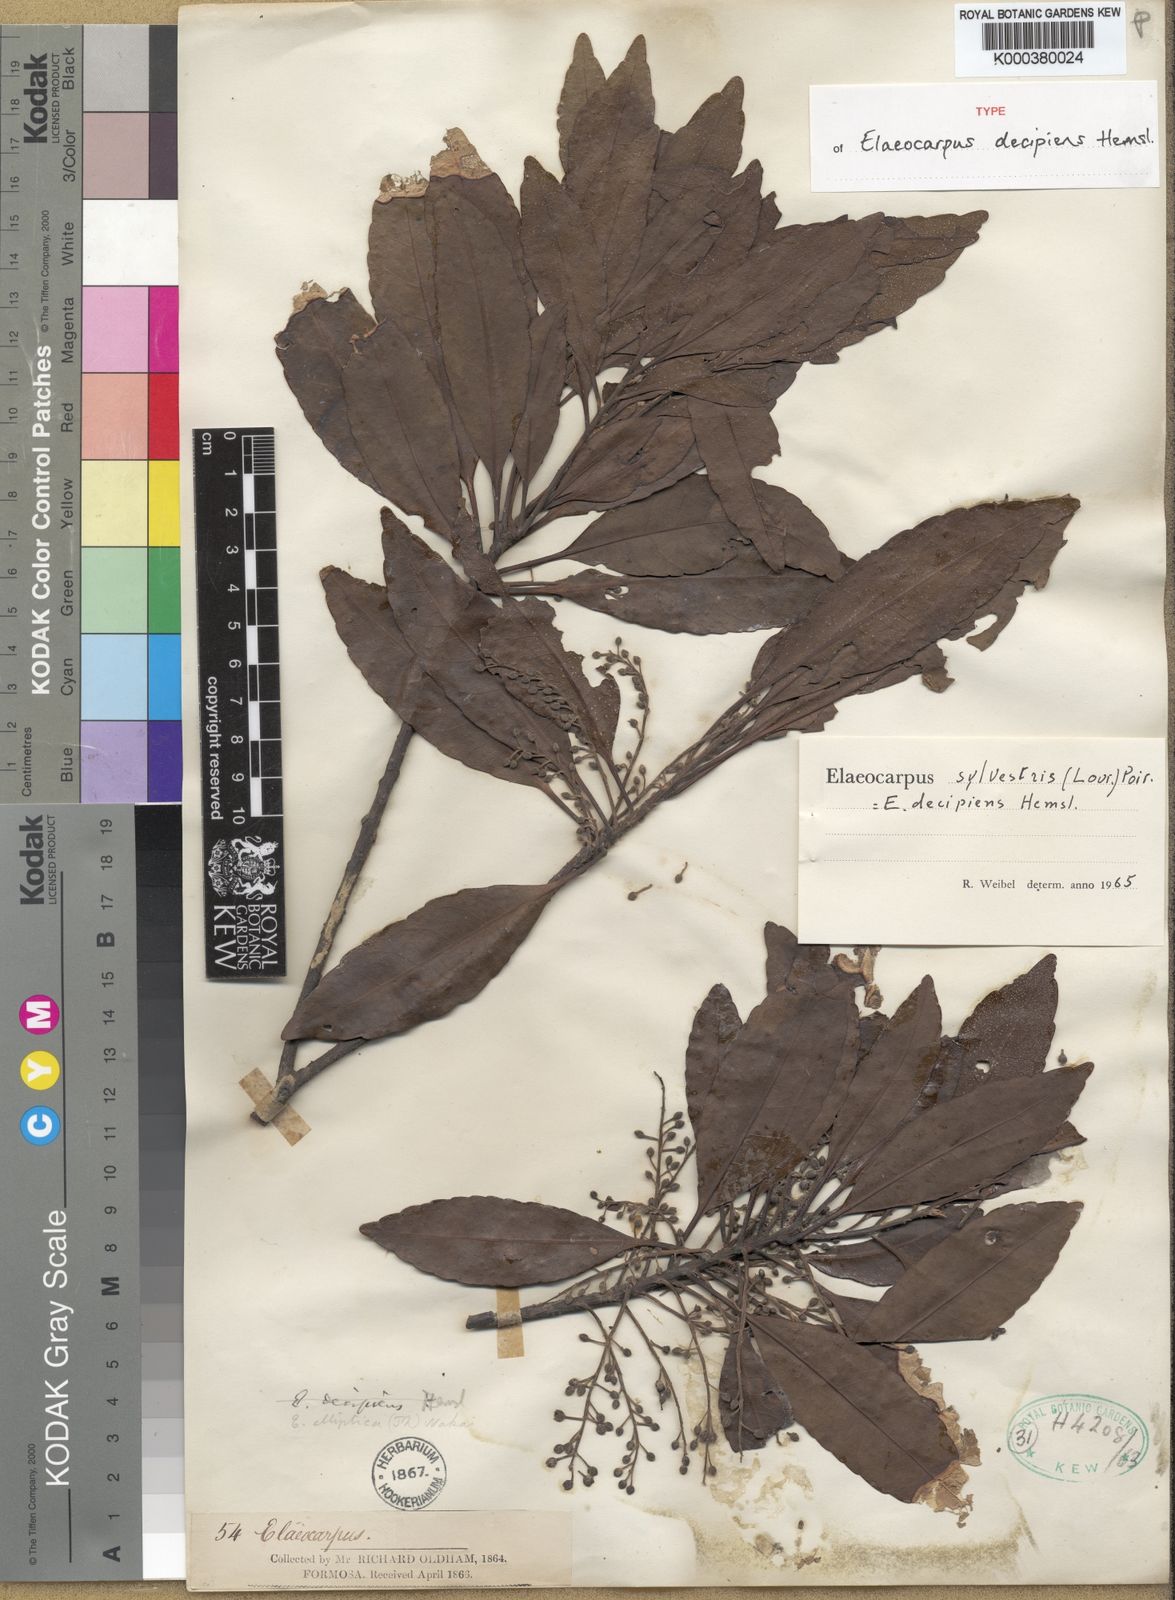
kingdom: Plantae
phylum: Tracheophyta
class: Magnoliopsida
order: Oxalidales
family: Elaeocarpaceae
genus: Elaeocarpus
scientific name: Elaeocarpus sylvestris
